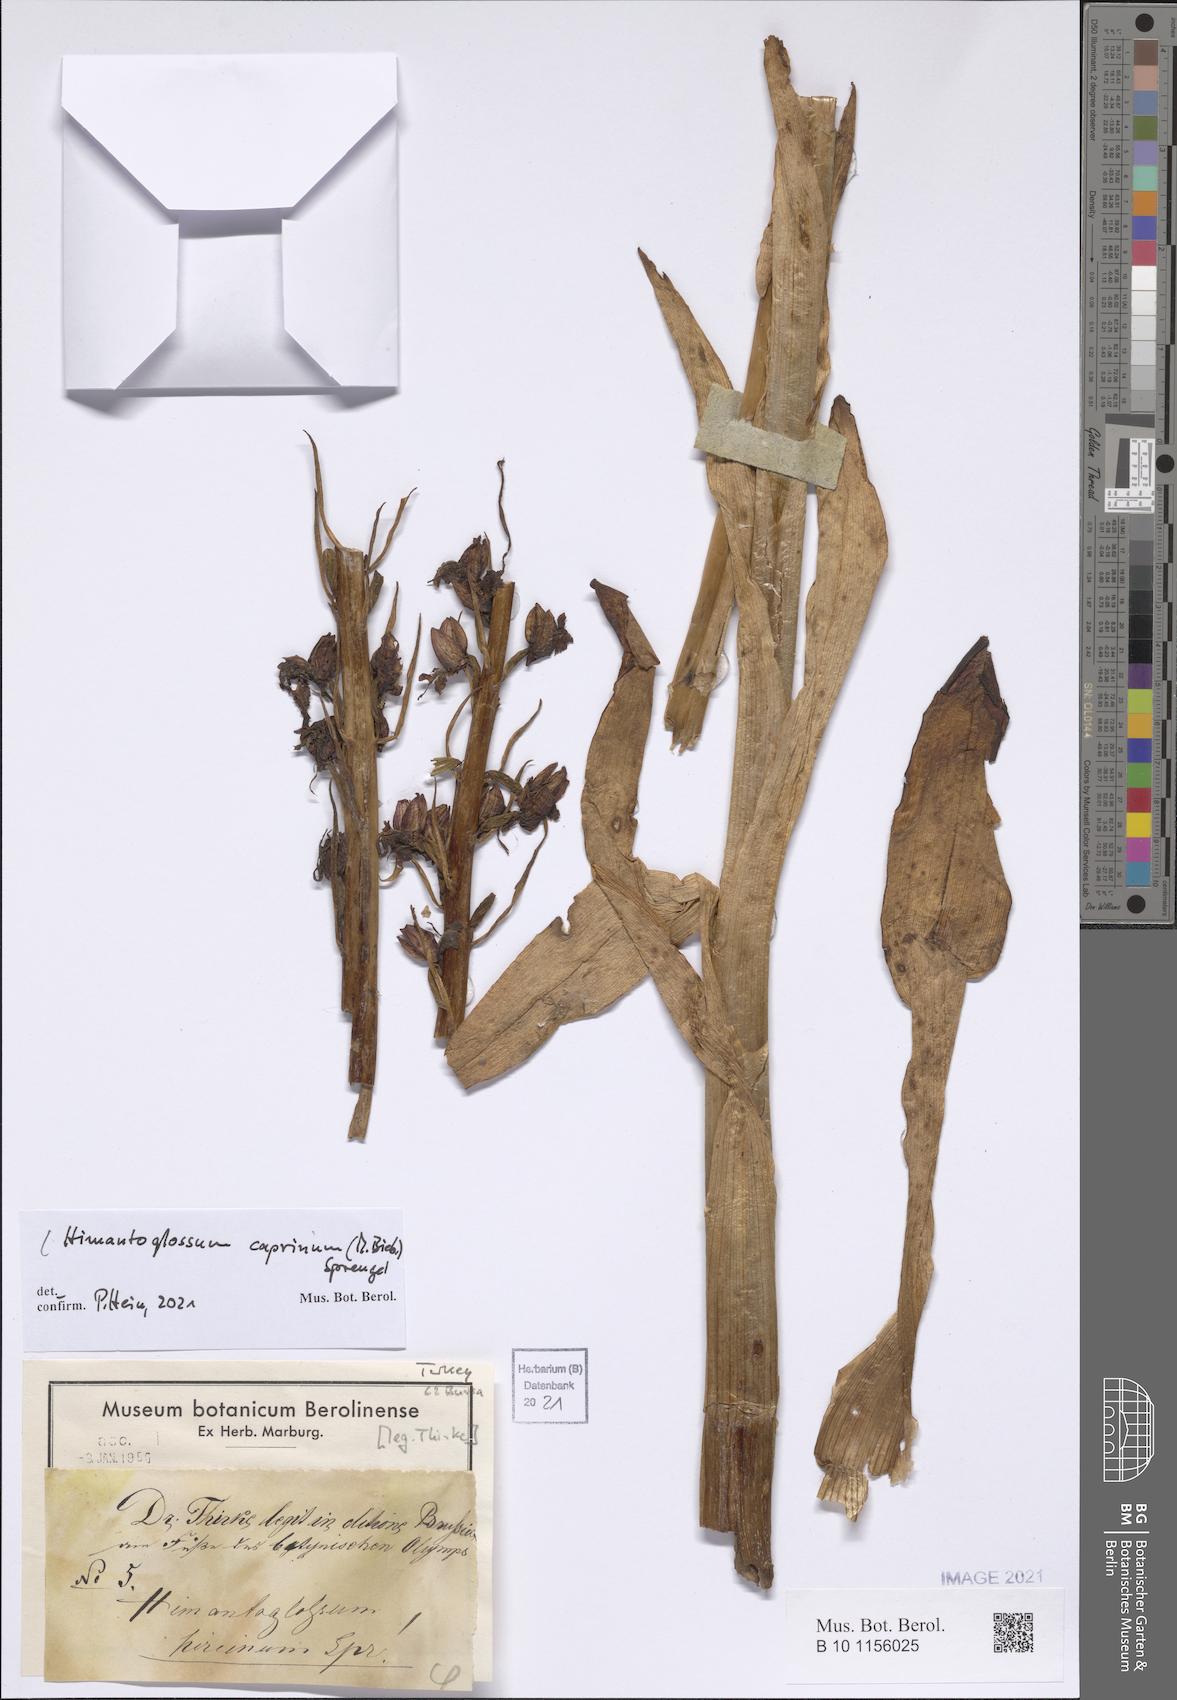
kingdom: Plantae
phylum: Tracheophyta
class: Liliopsida
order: Asparagales
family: Orchidaceae
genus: Himantoglossum
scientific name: Himantoglossum caprinum
